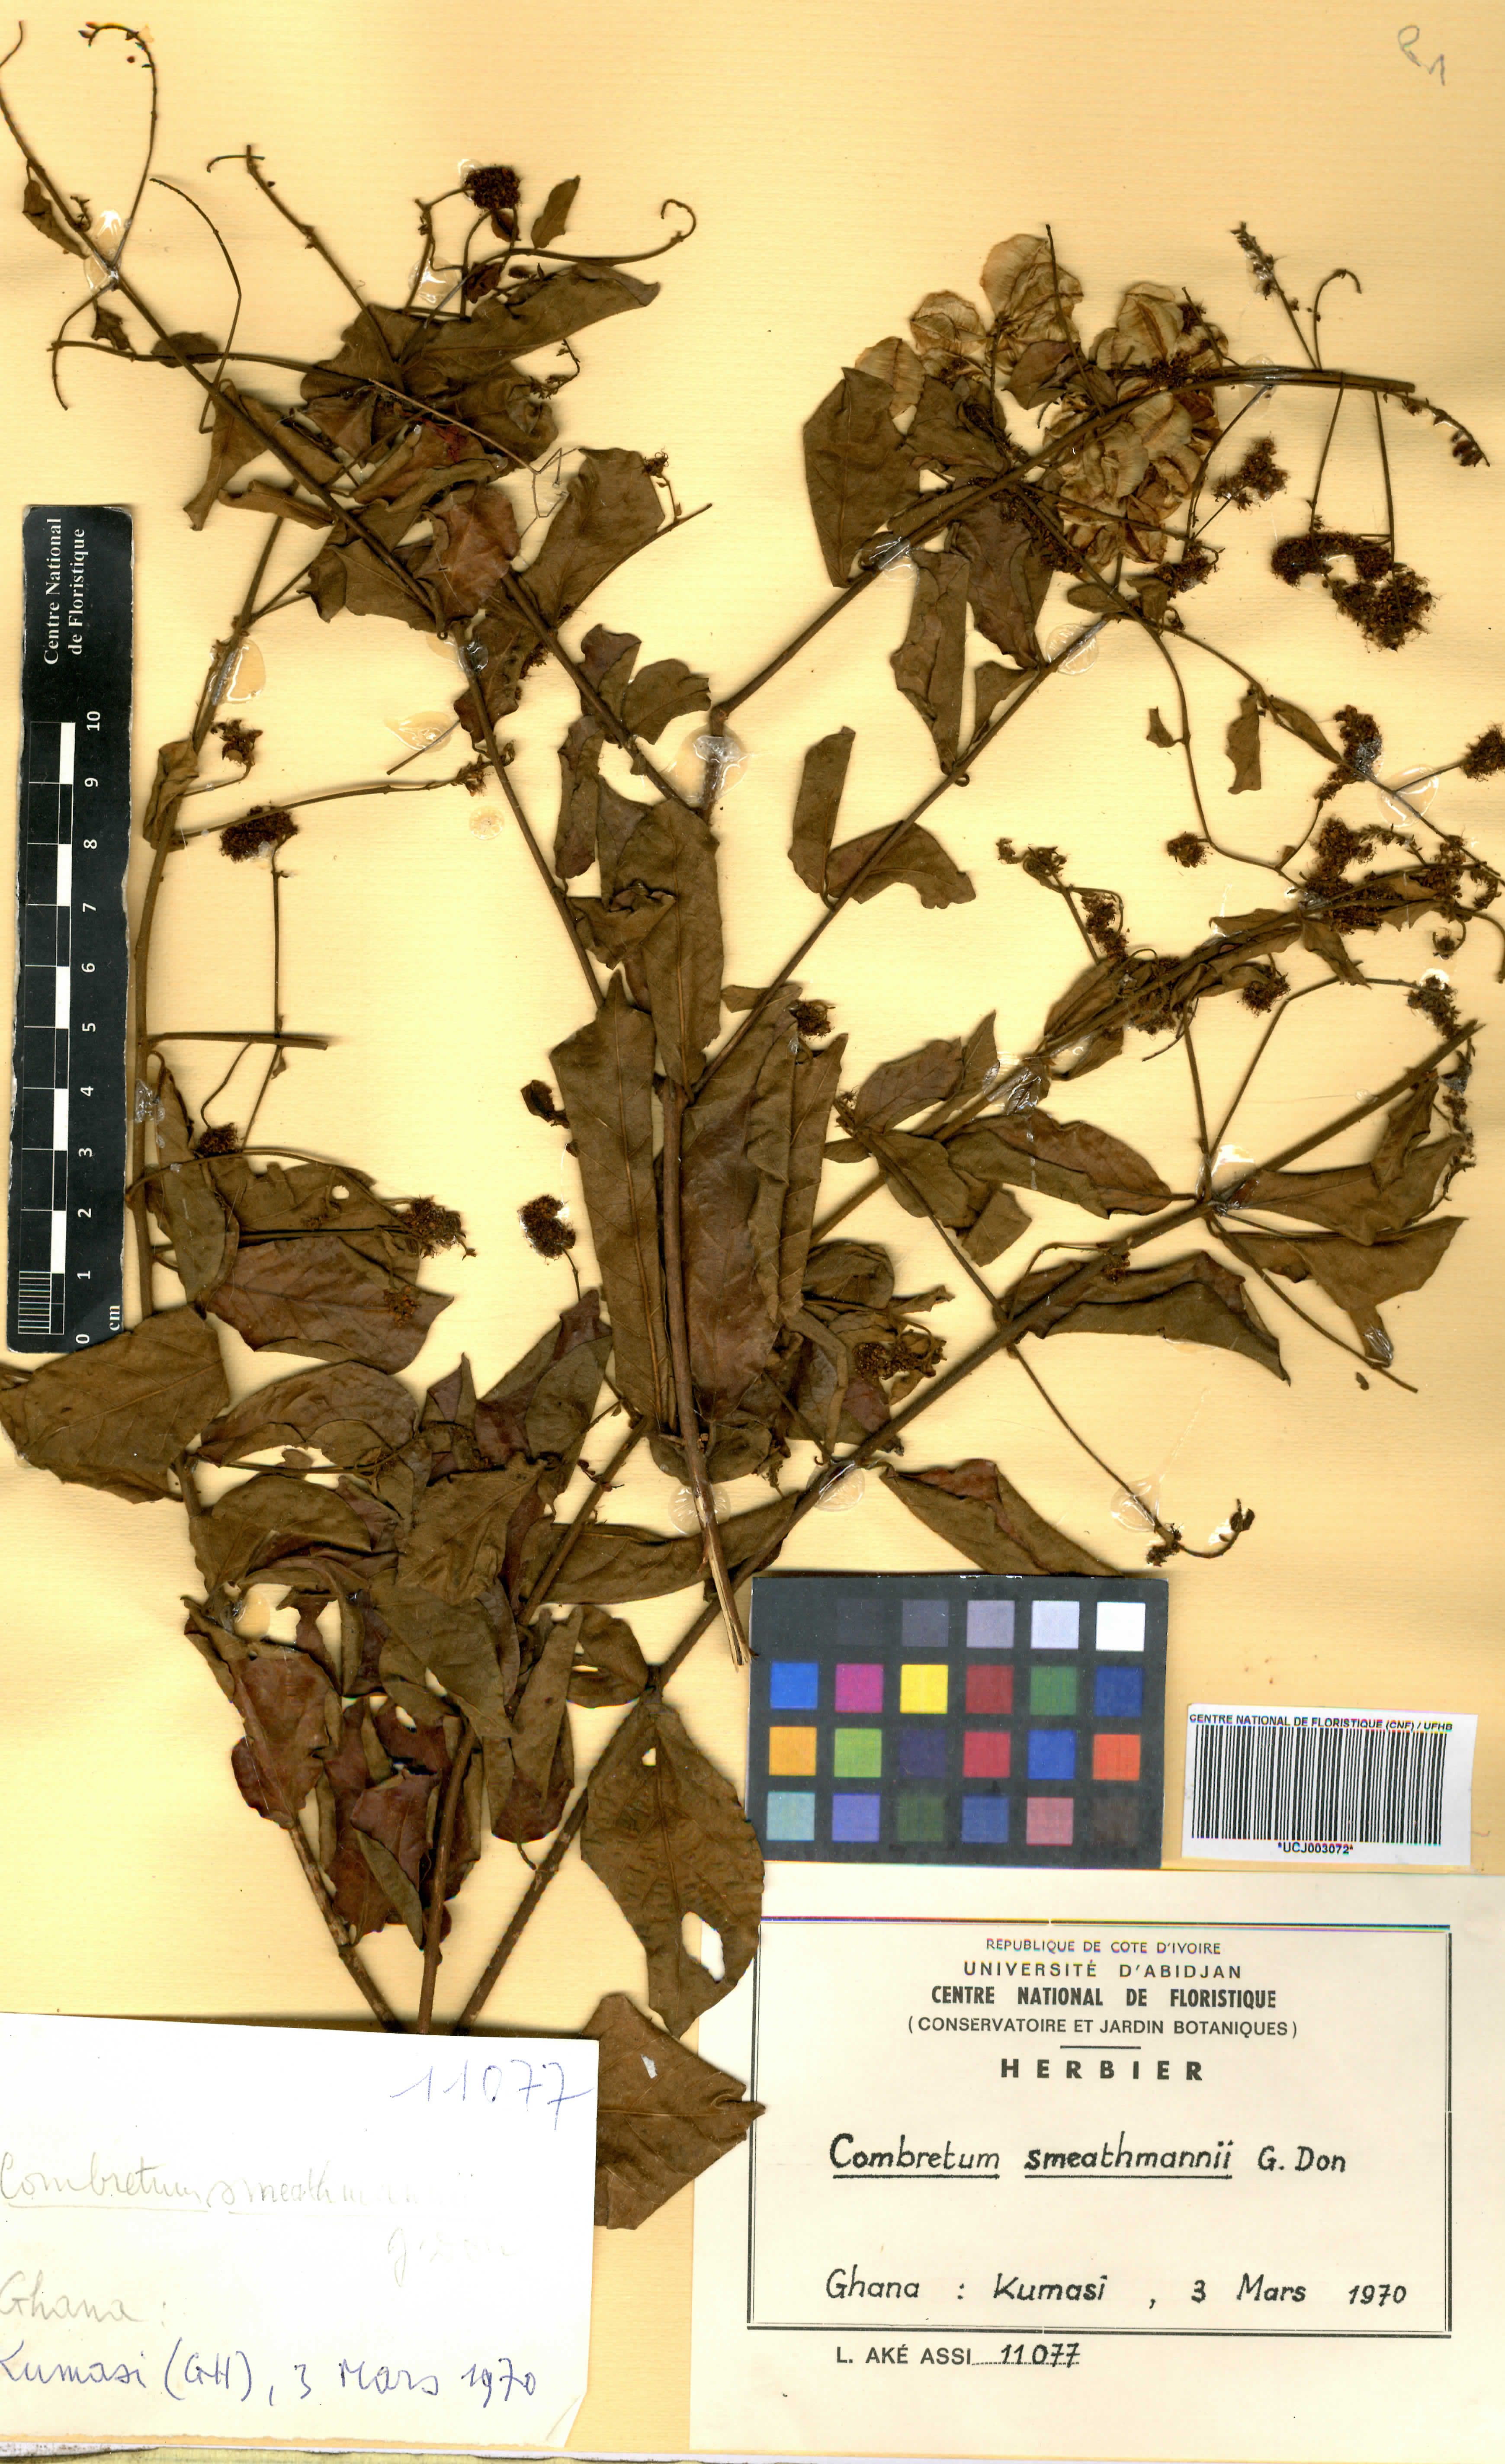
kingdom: Plantae
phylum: Tracheophyta
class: Magnoliopsida
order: Myrtales
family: Combretaceae
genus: Combretum
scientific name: Combretum mucronatum
